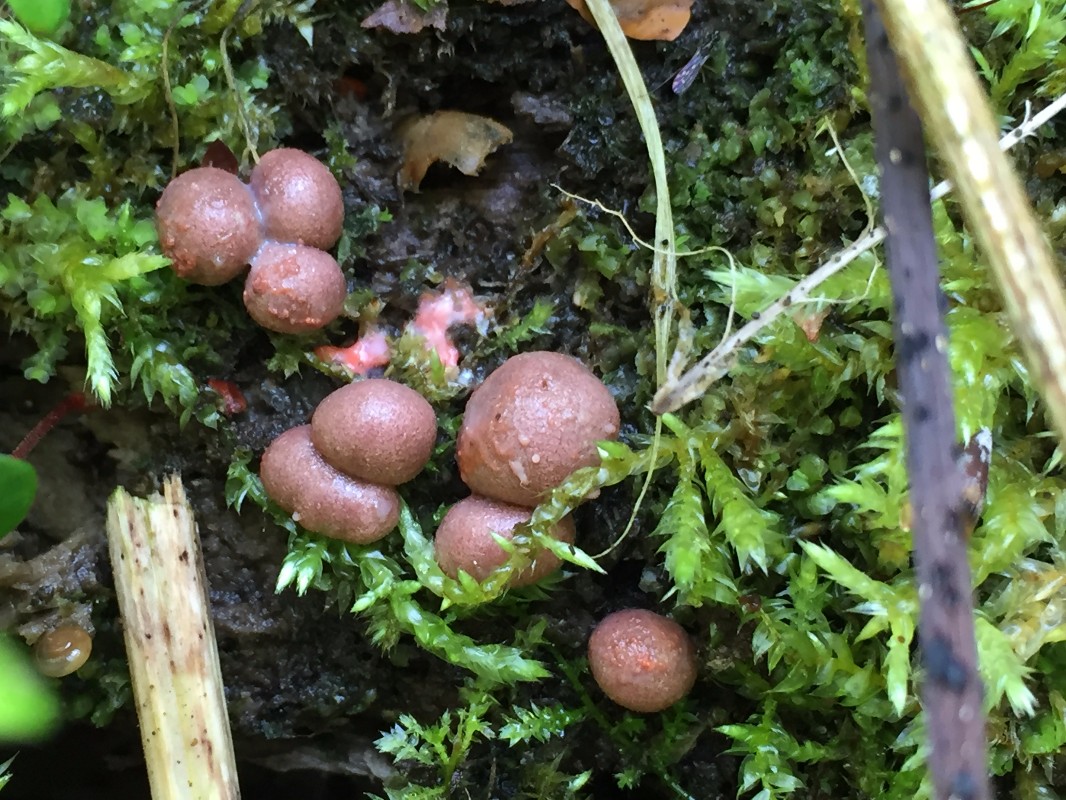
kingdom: Protozoa
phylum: Mycetozoa
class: Myxomycetes
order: Cribrariales
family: Tubiferaceae
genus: Lycogala
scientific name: Lycogala epidendrum
